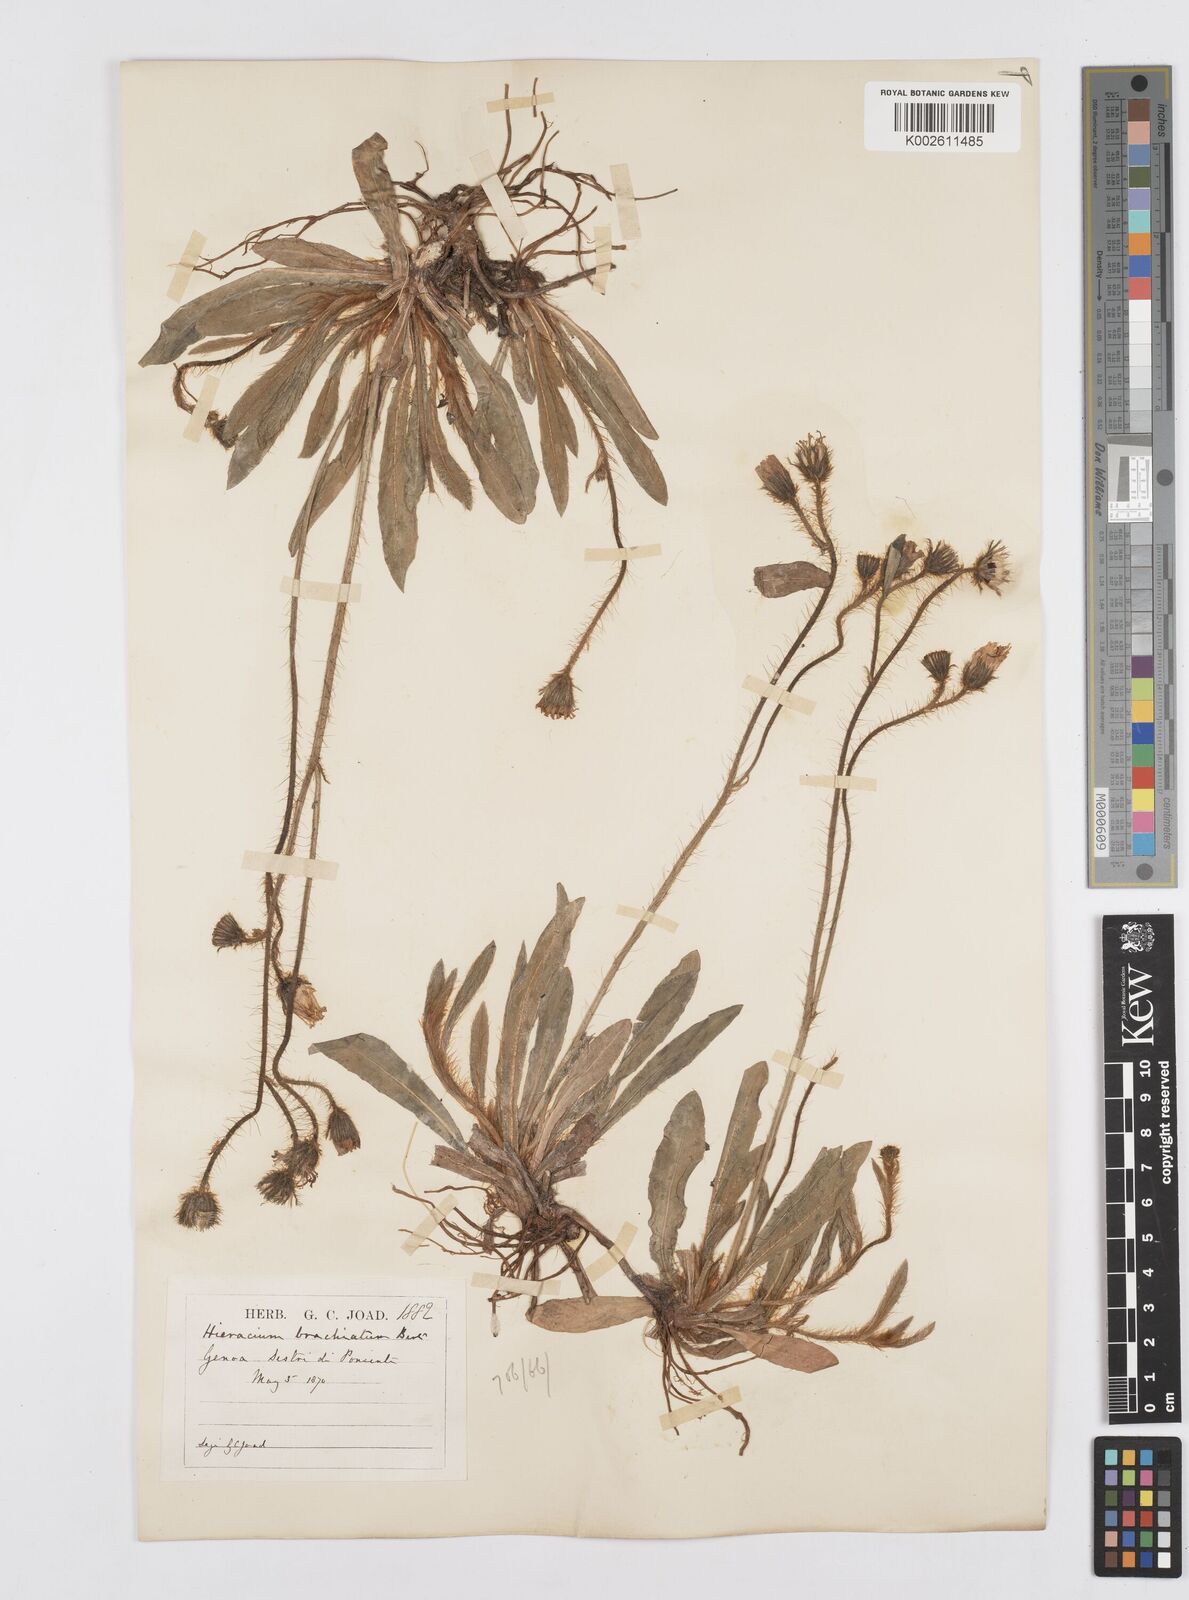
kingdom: Plantae
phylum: Tracheophyta
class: Magnoliopsida
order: Asterales
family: Asteraceae
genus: Pilosella
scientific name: Pilosella acutifolia
